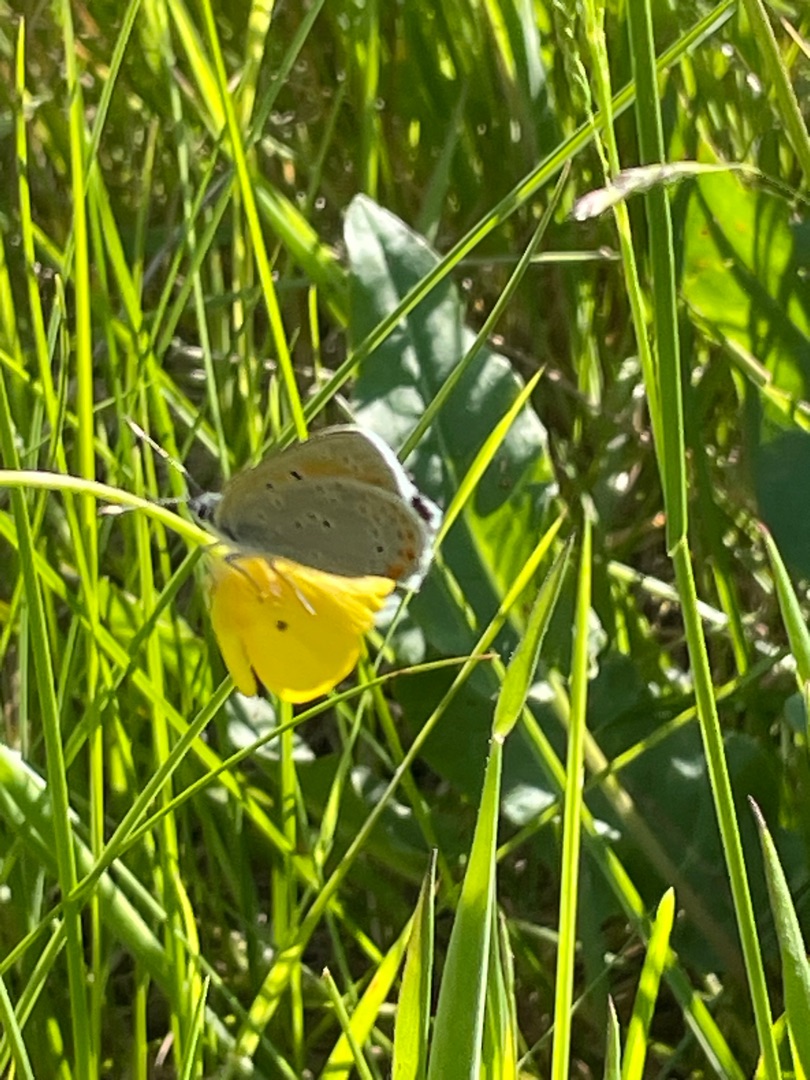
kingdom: Animalia
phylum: Arthropoda
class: Insecta
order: Lepidoptera
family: Lycaenidae
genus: Palaeochrysophanus
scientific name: Palaeochrysophanus hippothoe
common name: Violetrandet ildfugl
